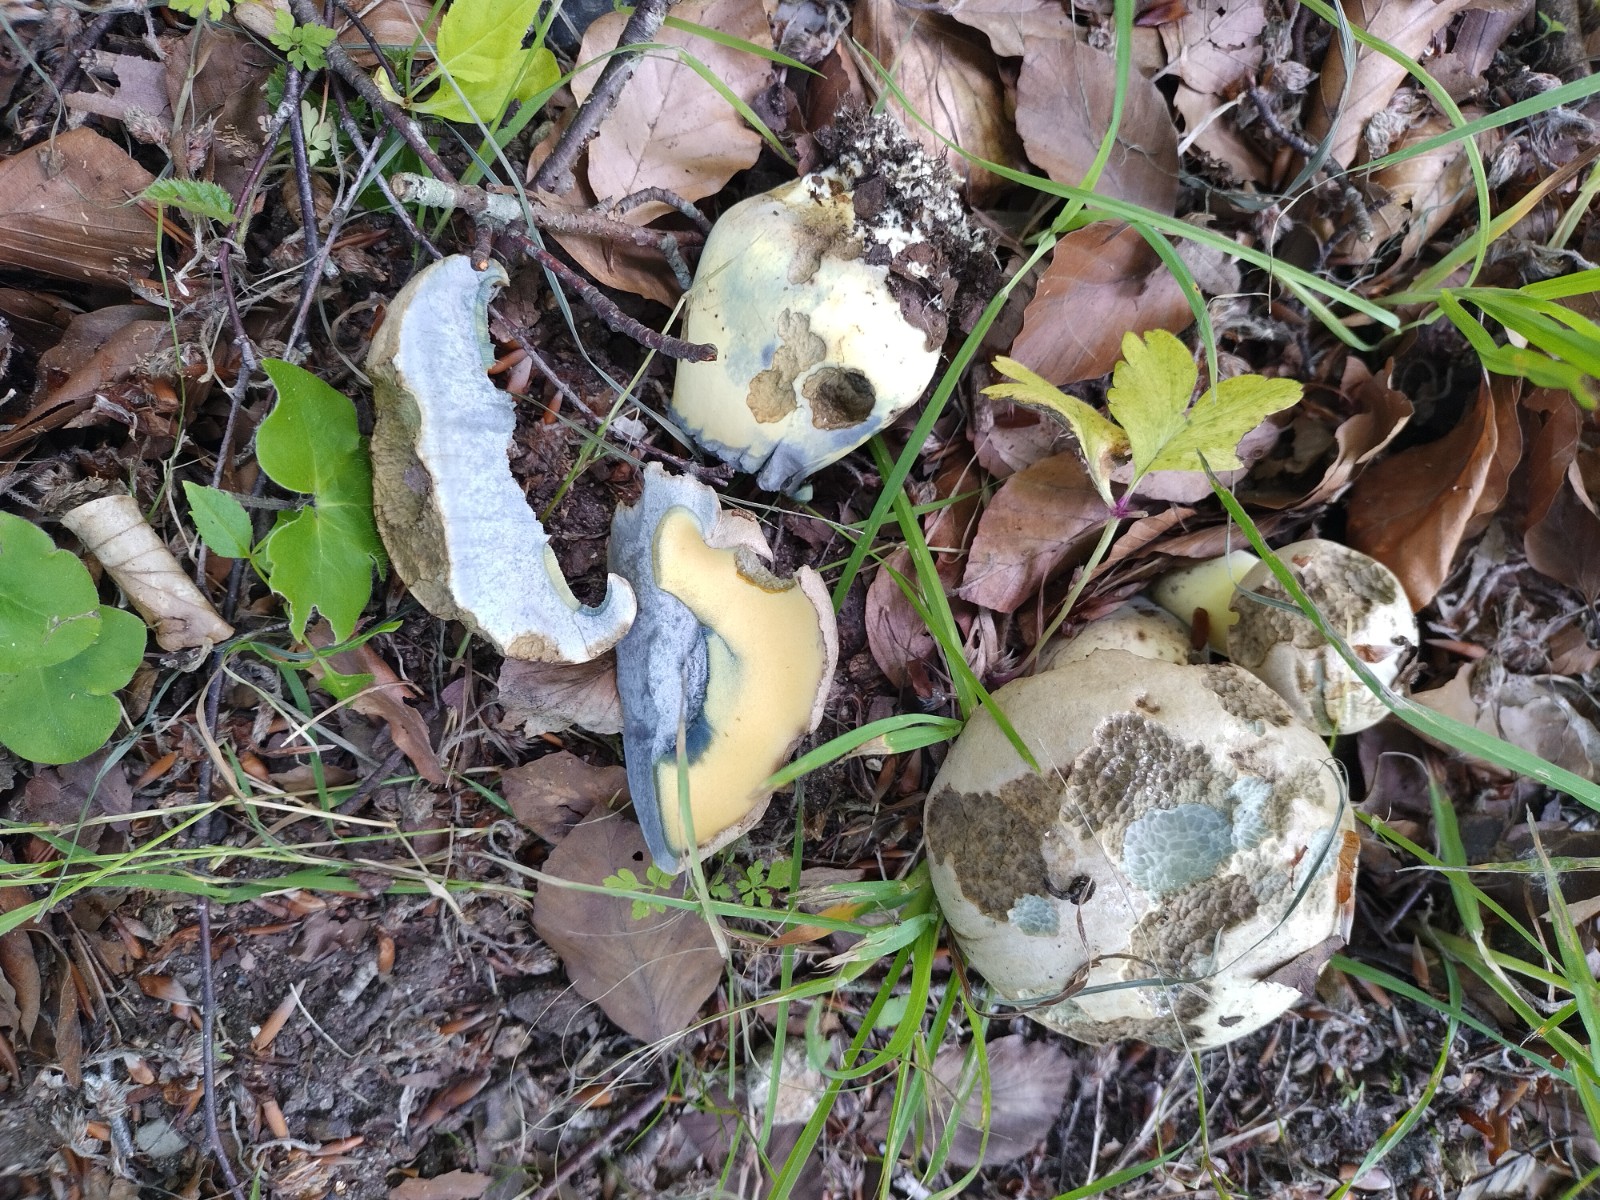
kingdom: Fungi
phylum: Basidiomycota
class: Agaricomycetes
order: Boletales
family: Boletaceae
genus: Caloboletus
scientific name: Caloboletus radicans
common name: rod-rørhat
